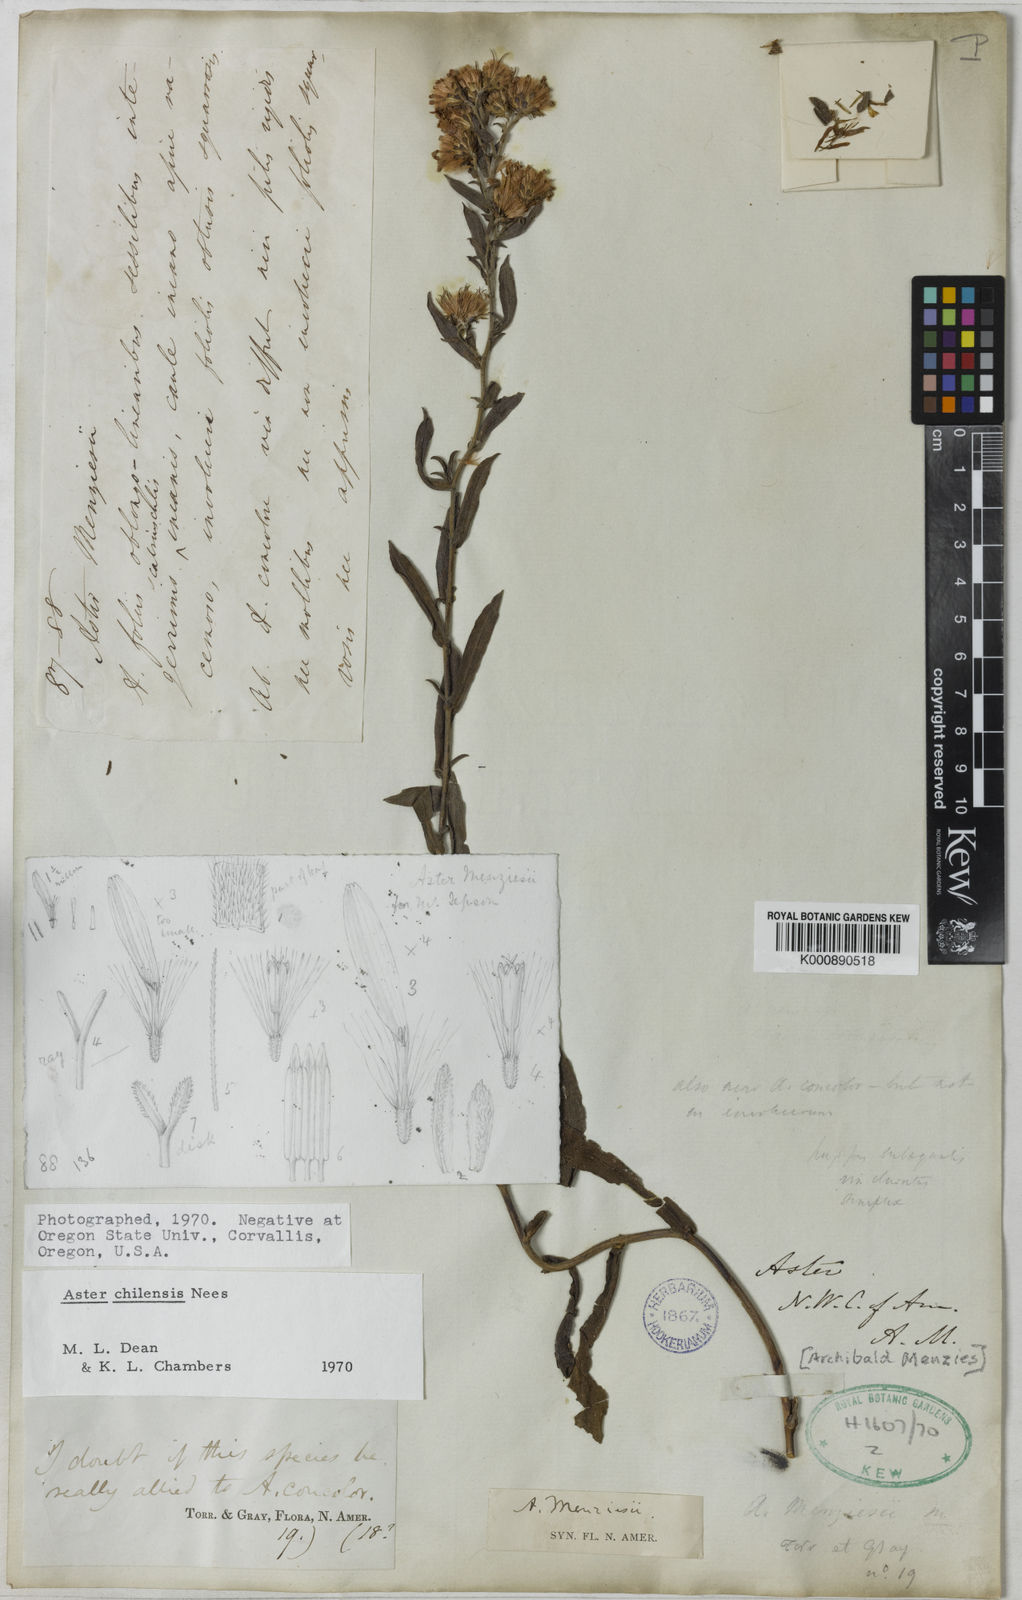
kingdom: Plantae
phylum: Tracheophyta
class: Magnoliopsida
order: Asterales
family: Asteraceae
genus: Symphyotrichum
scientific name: Symphyotrichum chilense
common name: Pacific aster
